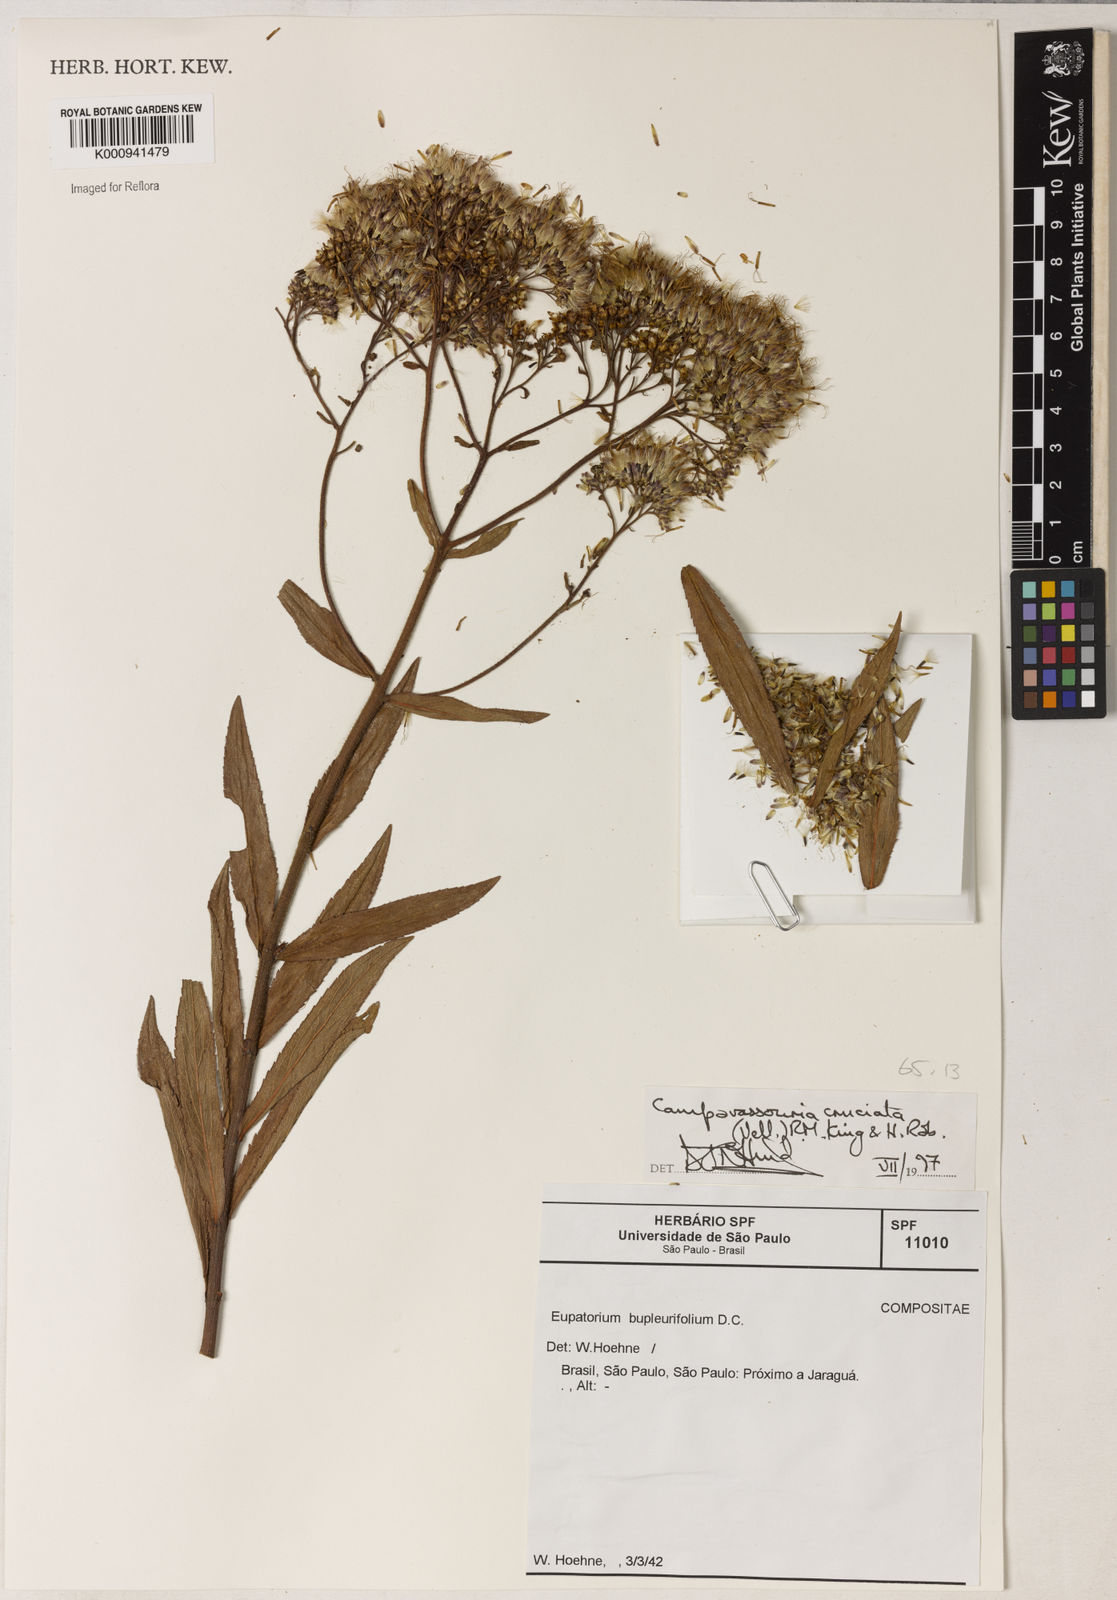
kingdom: Plantae
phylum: Tracheophyta
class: Magnoliopsida
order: Asterales
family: Asteraceae
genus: Campovassouria
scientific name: Campovassouria cruciata
